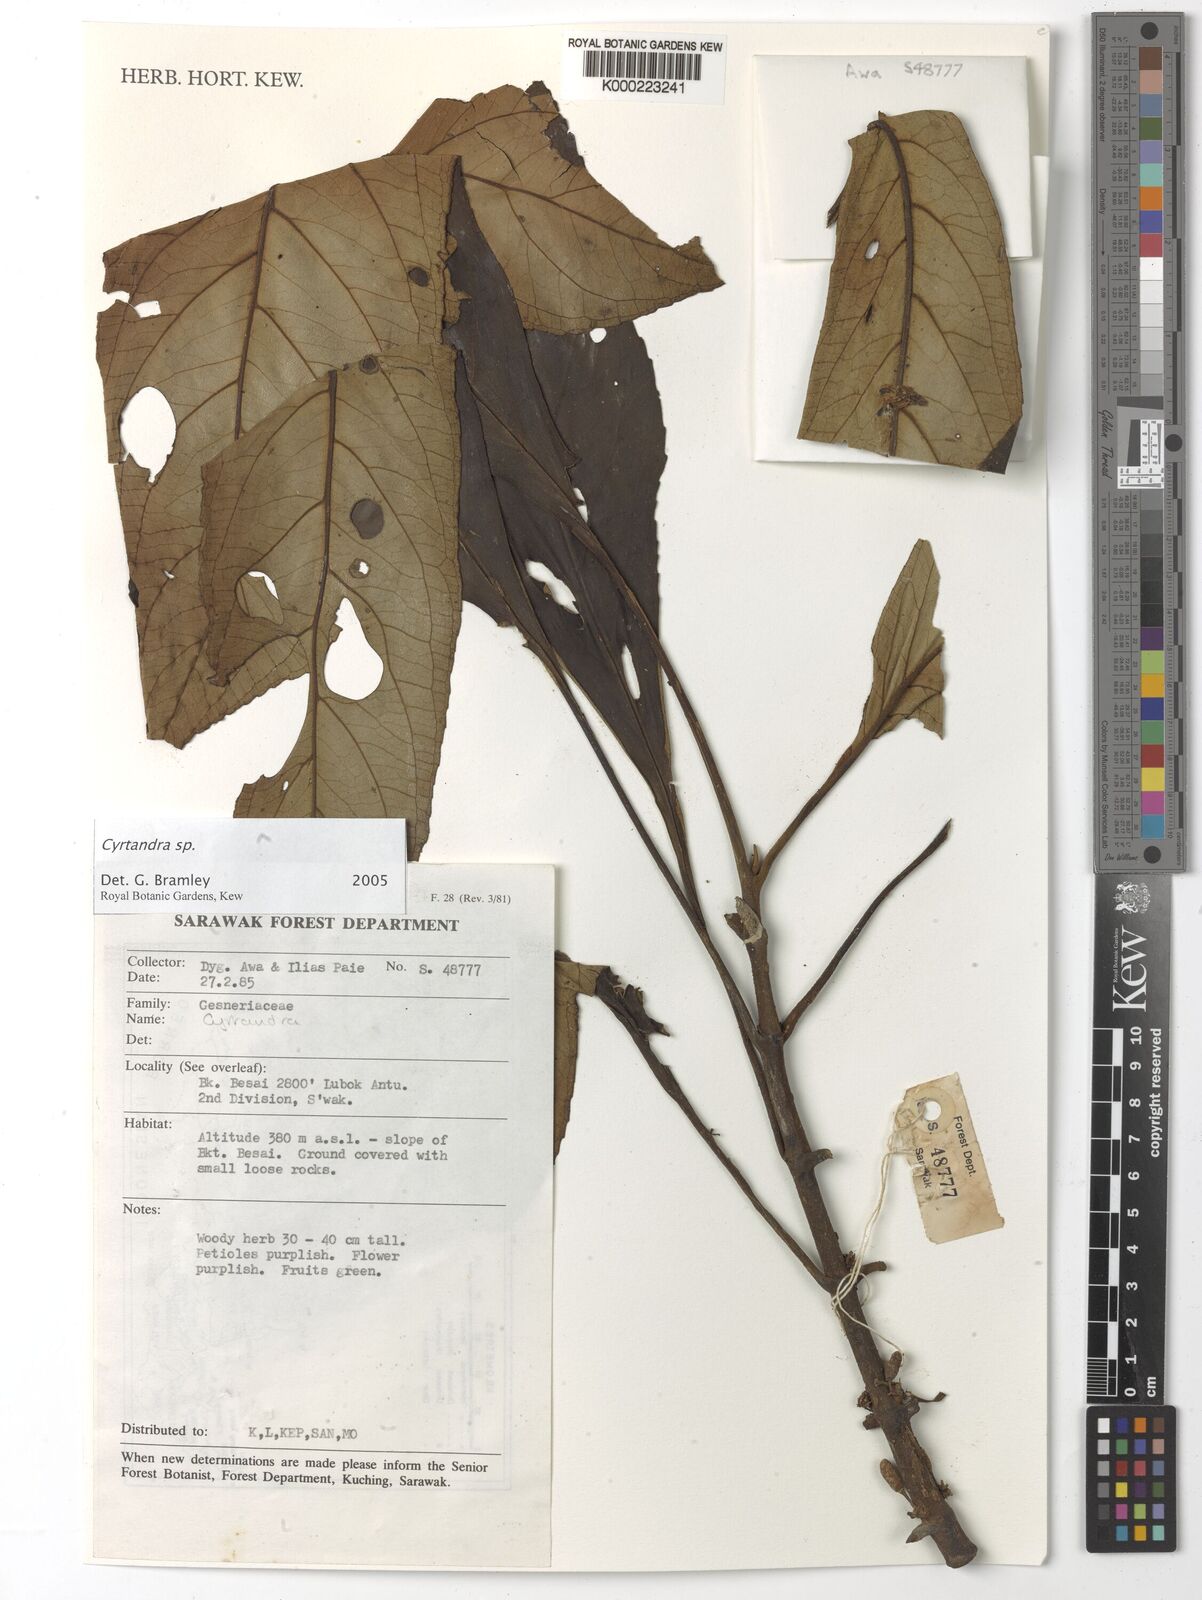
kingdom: Plantae
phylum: Tracheophyta
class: Magnoliopsida
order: Lamiales
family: Gesneriaceae
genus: Cyrtandra
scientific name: Cyrtandra
